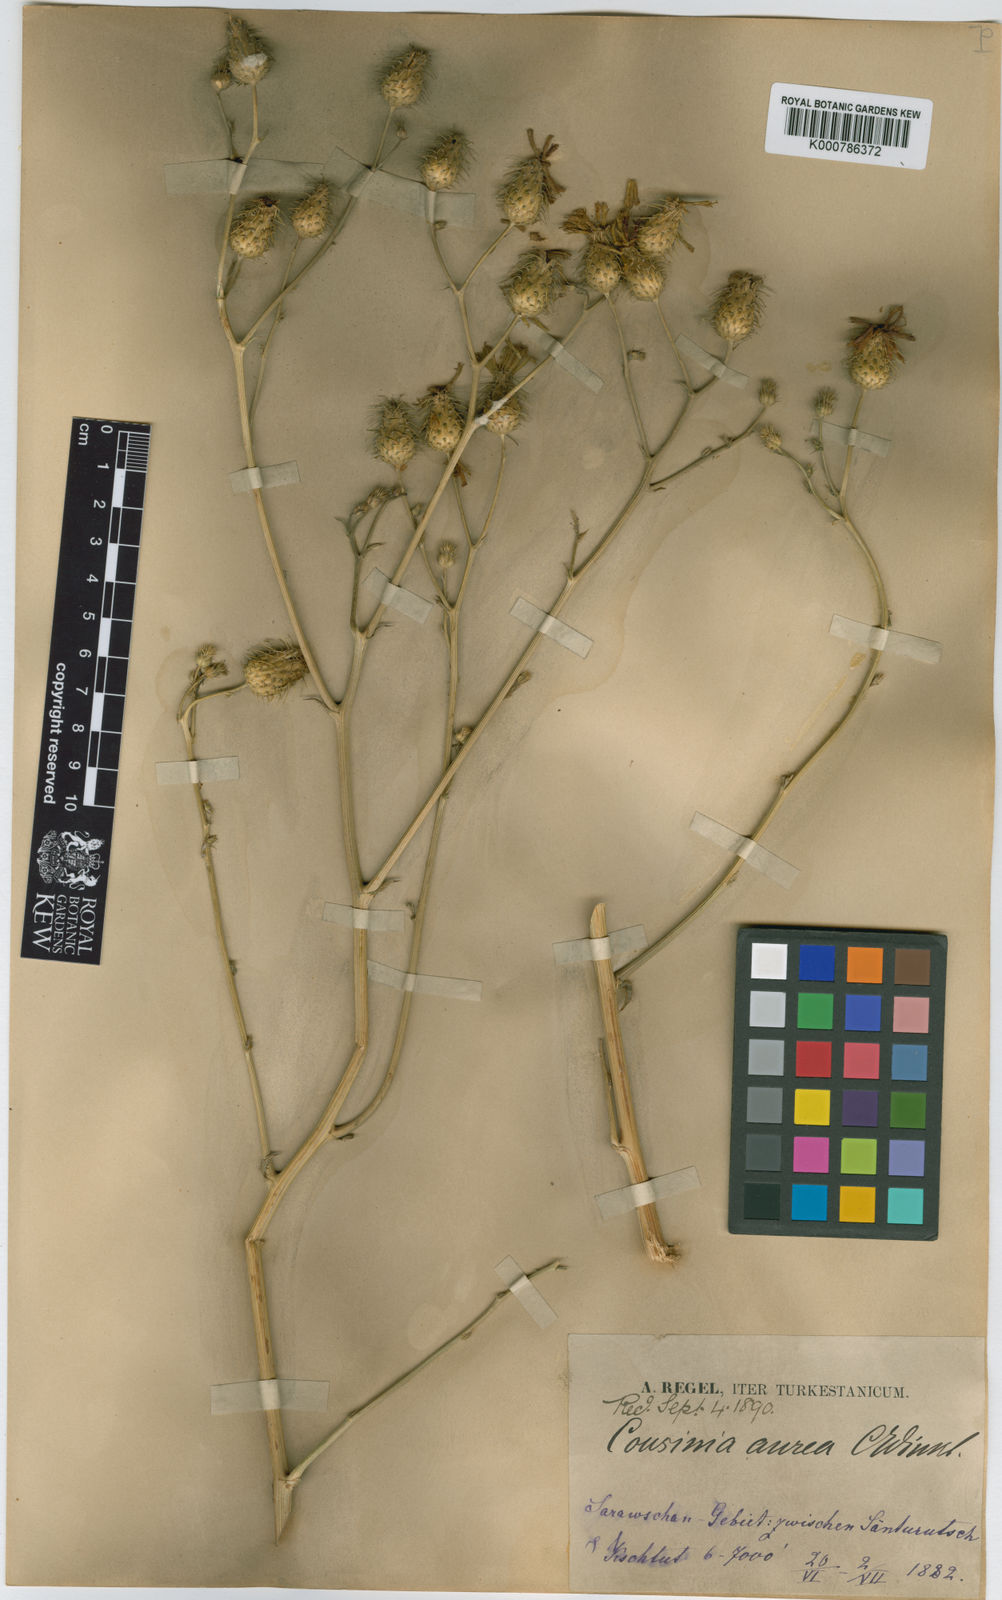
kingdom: Plantae
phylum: Tracheophyta
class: Magnoliopsida
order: Asterales
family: Asteraceae
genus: Arctium
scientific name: Arctium aureum
